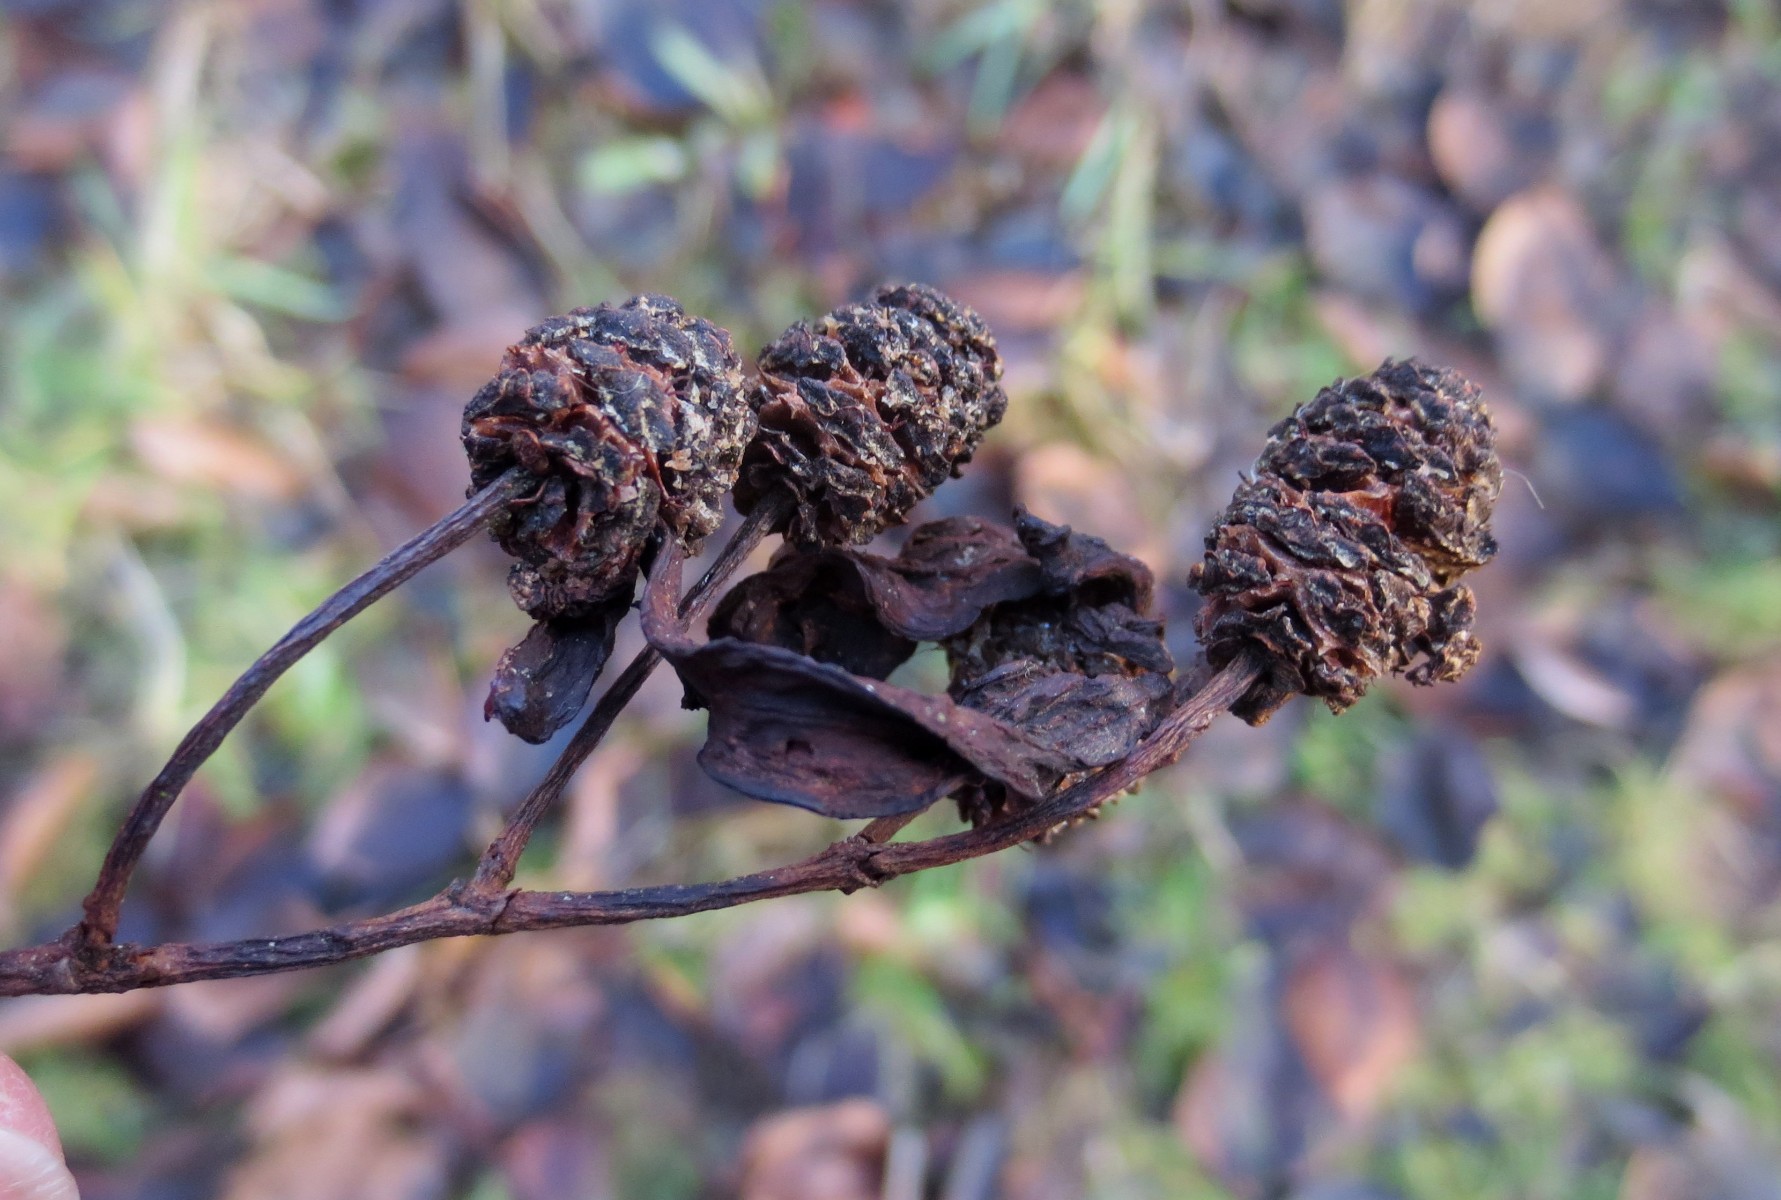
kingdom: Fungi
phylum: Ascomycota
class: Taphrinomycetes
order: Taphrinales
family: Taphrinaceae
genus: Taphrina
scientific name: Taphrina alni
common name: Alder tongue
